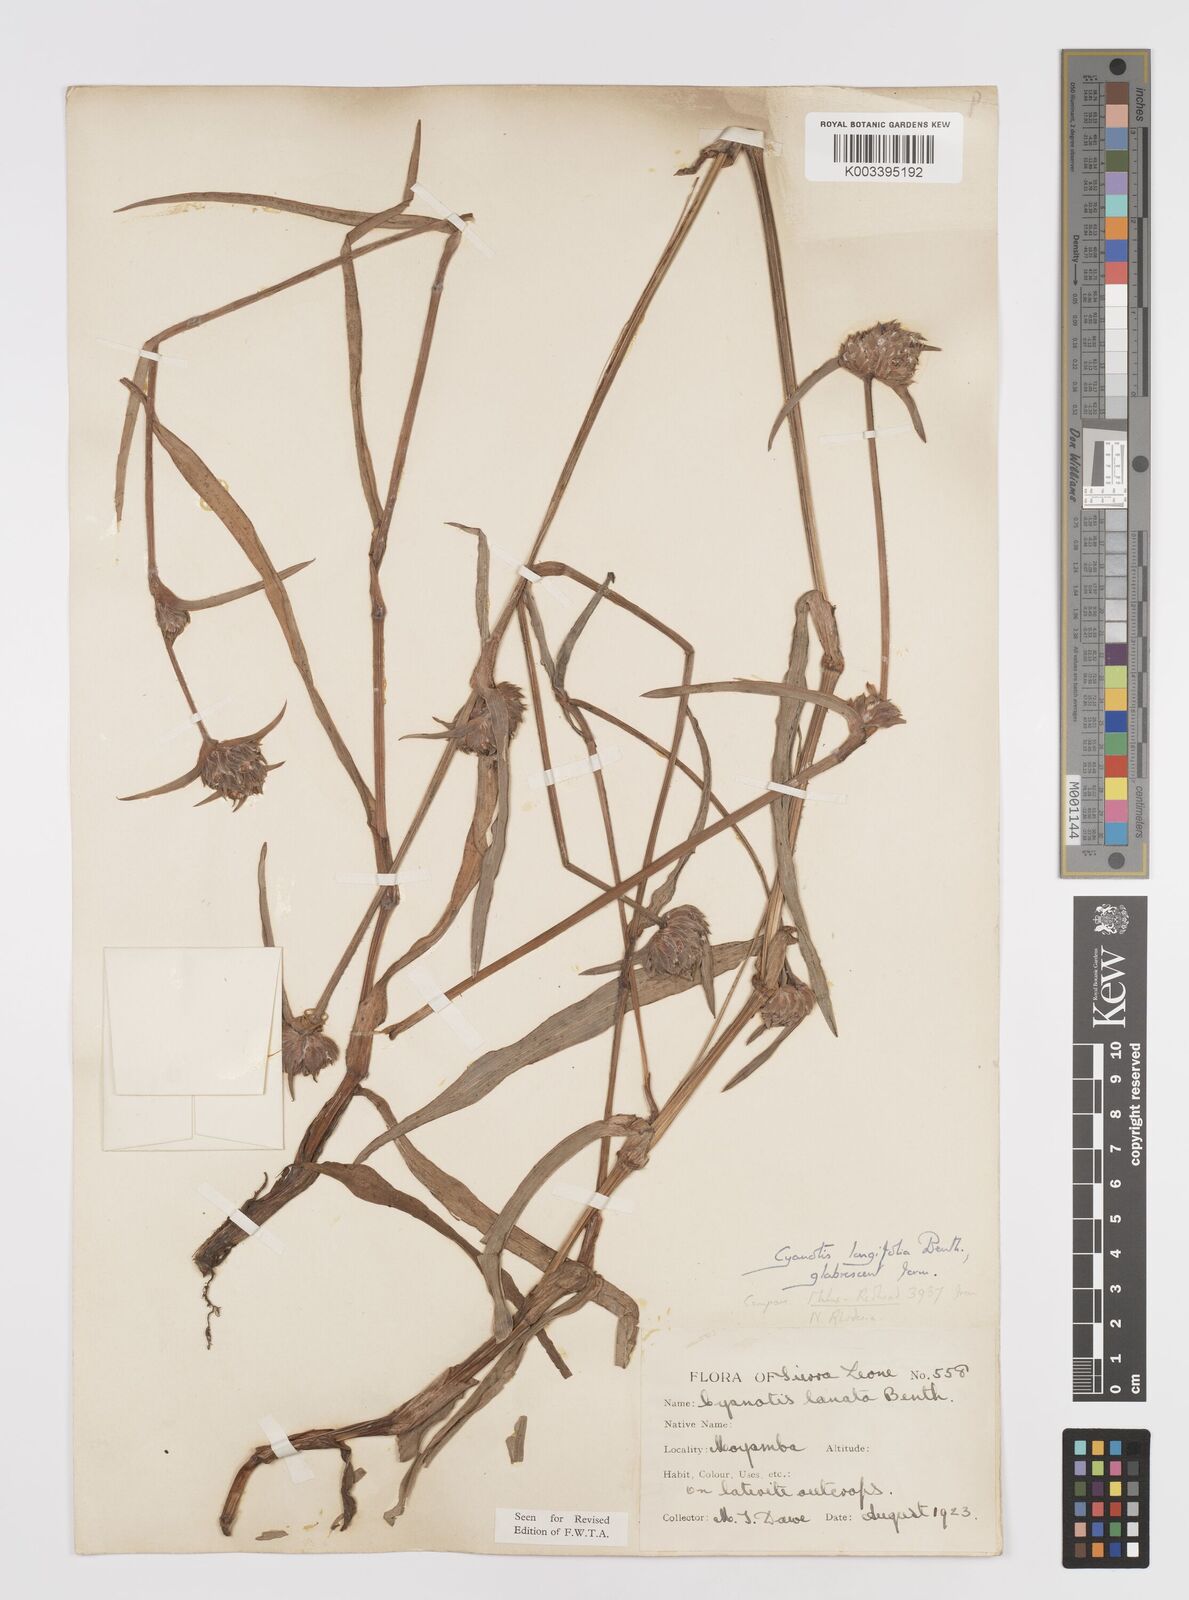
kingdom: Plantae
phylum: Tracheophyta
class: Liliopsida
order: Commelinales
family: Commelinaceae
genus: Cyanotis
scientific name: Cyanotis
